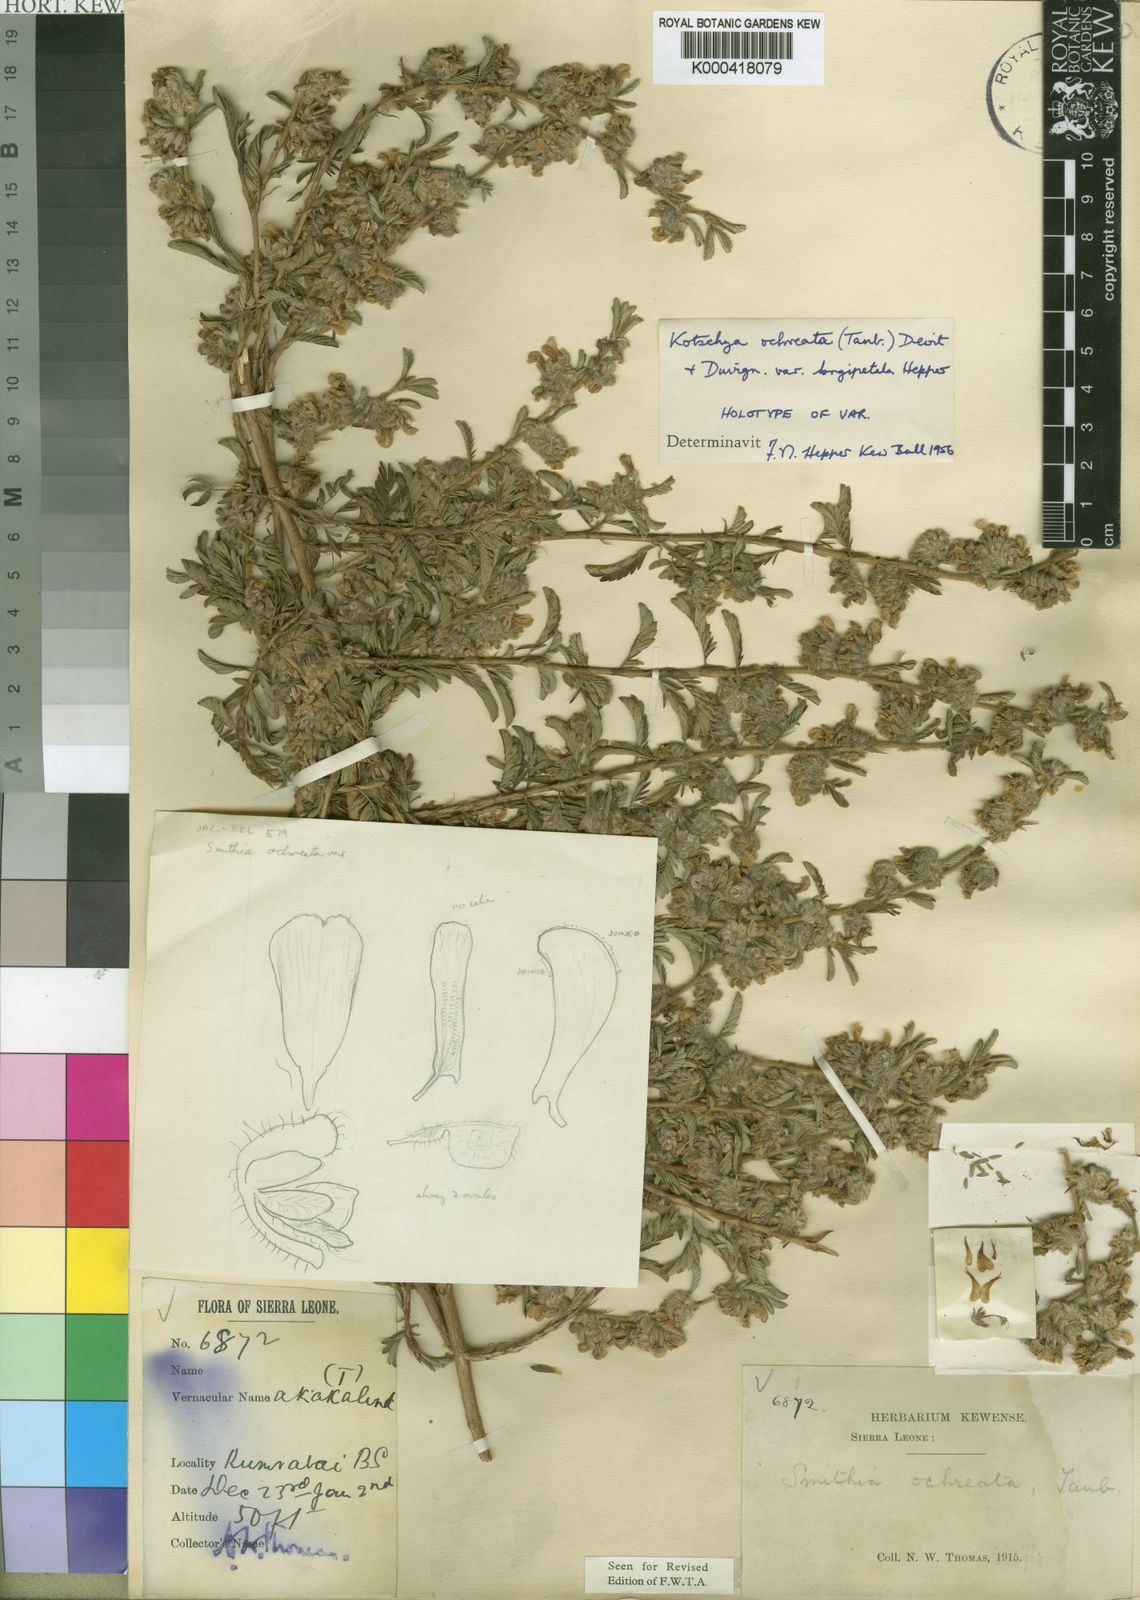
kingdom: Plantae
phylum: Tracheophyta
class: Magnoliopsida
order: Fabales
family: Fabaceae
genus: Kotschya
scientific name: Kotschya ochreata
